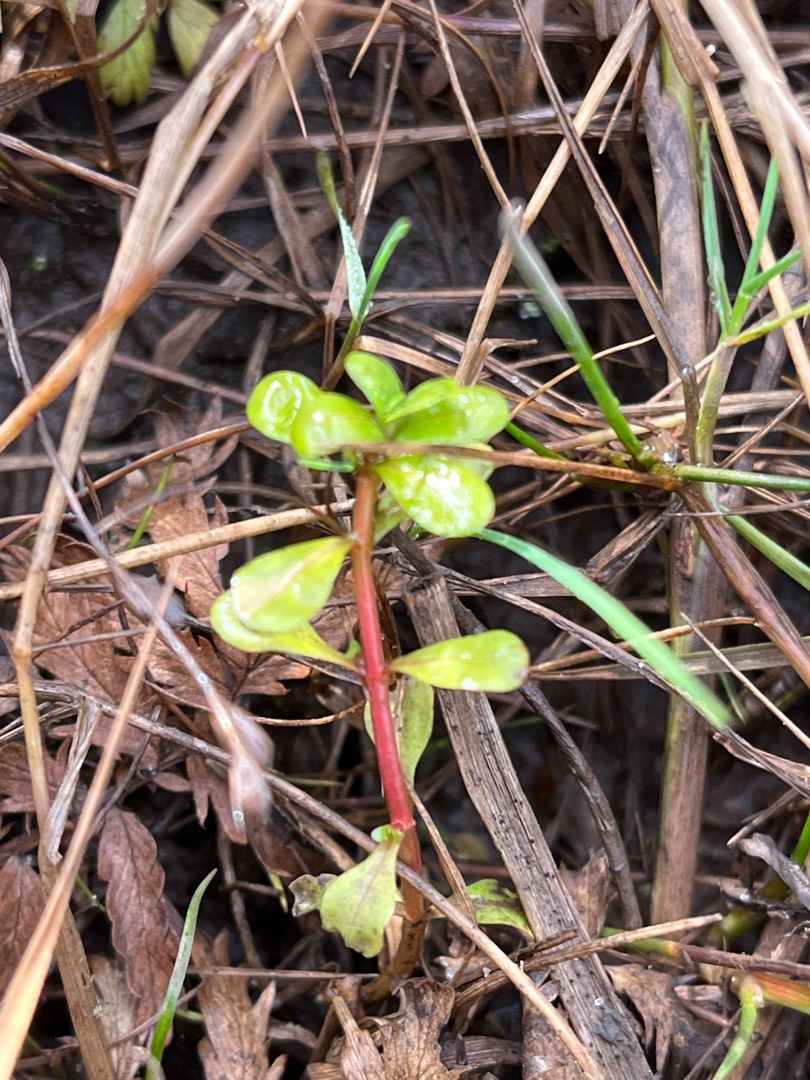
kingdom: Plantae
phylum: Tracheophyta
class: Magnoliopsida
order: Myrtales
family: Lythraceae
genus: Lythrum
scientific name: Lythrum portula
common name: Vandportulak
